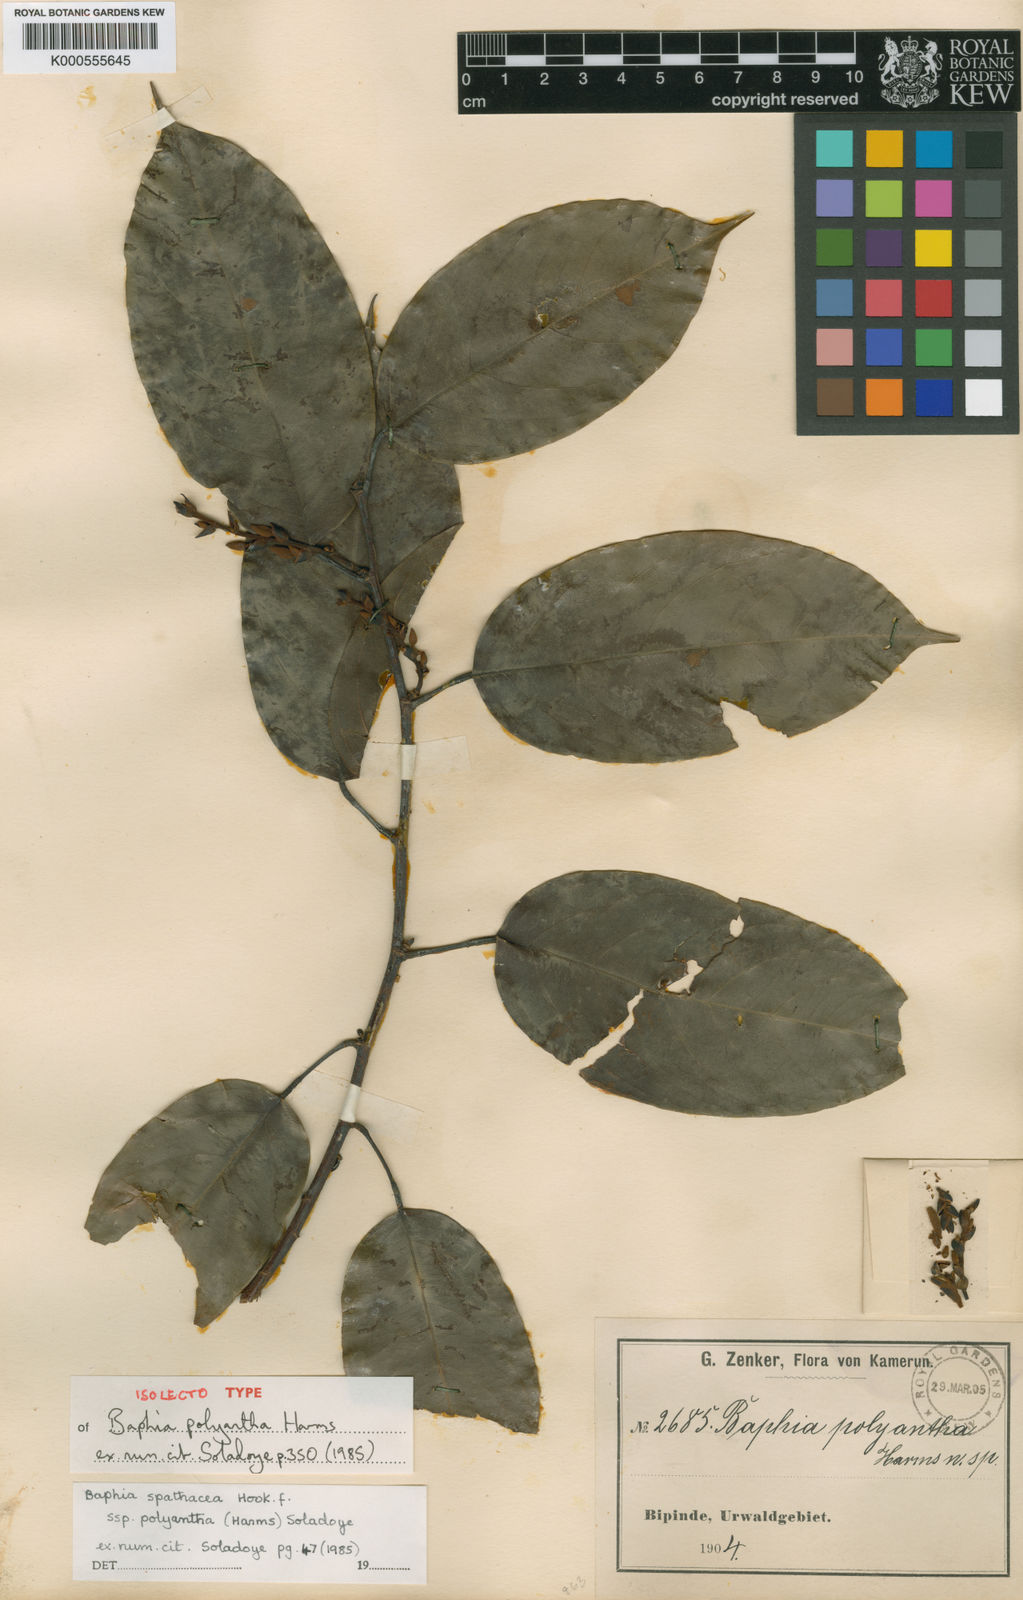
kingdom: Plantae
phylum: Tracheophyta
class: Magnoliopsida
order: Fabales
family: Fabaceae
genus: Baphia
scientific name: Baphia polyantha
